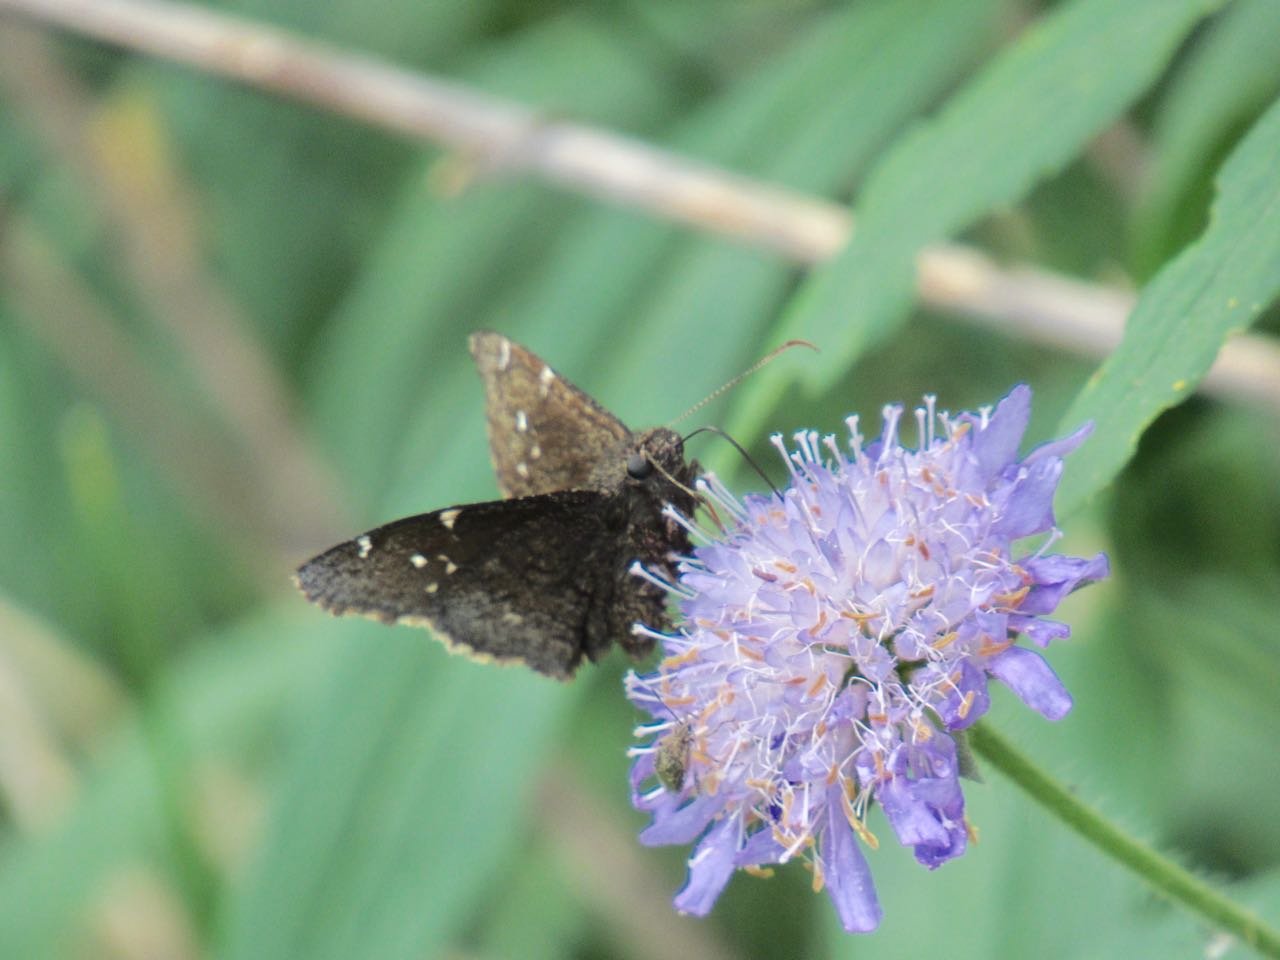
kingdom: Animalia
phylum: Arthropoda
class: Insecta
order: Lepidoptera
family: Hesperiidae
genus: Autochton
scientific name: Autochton
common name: Northern Cloudywing
